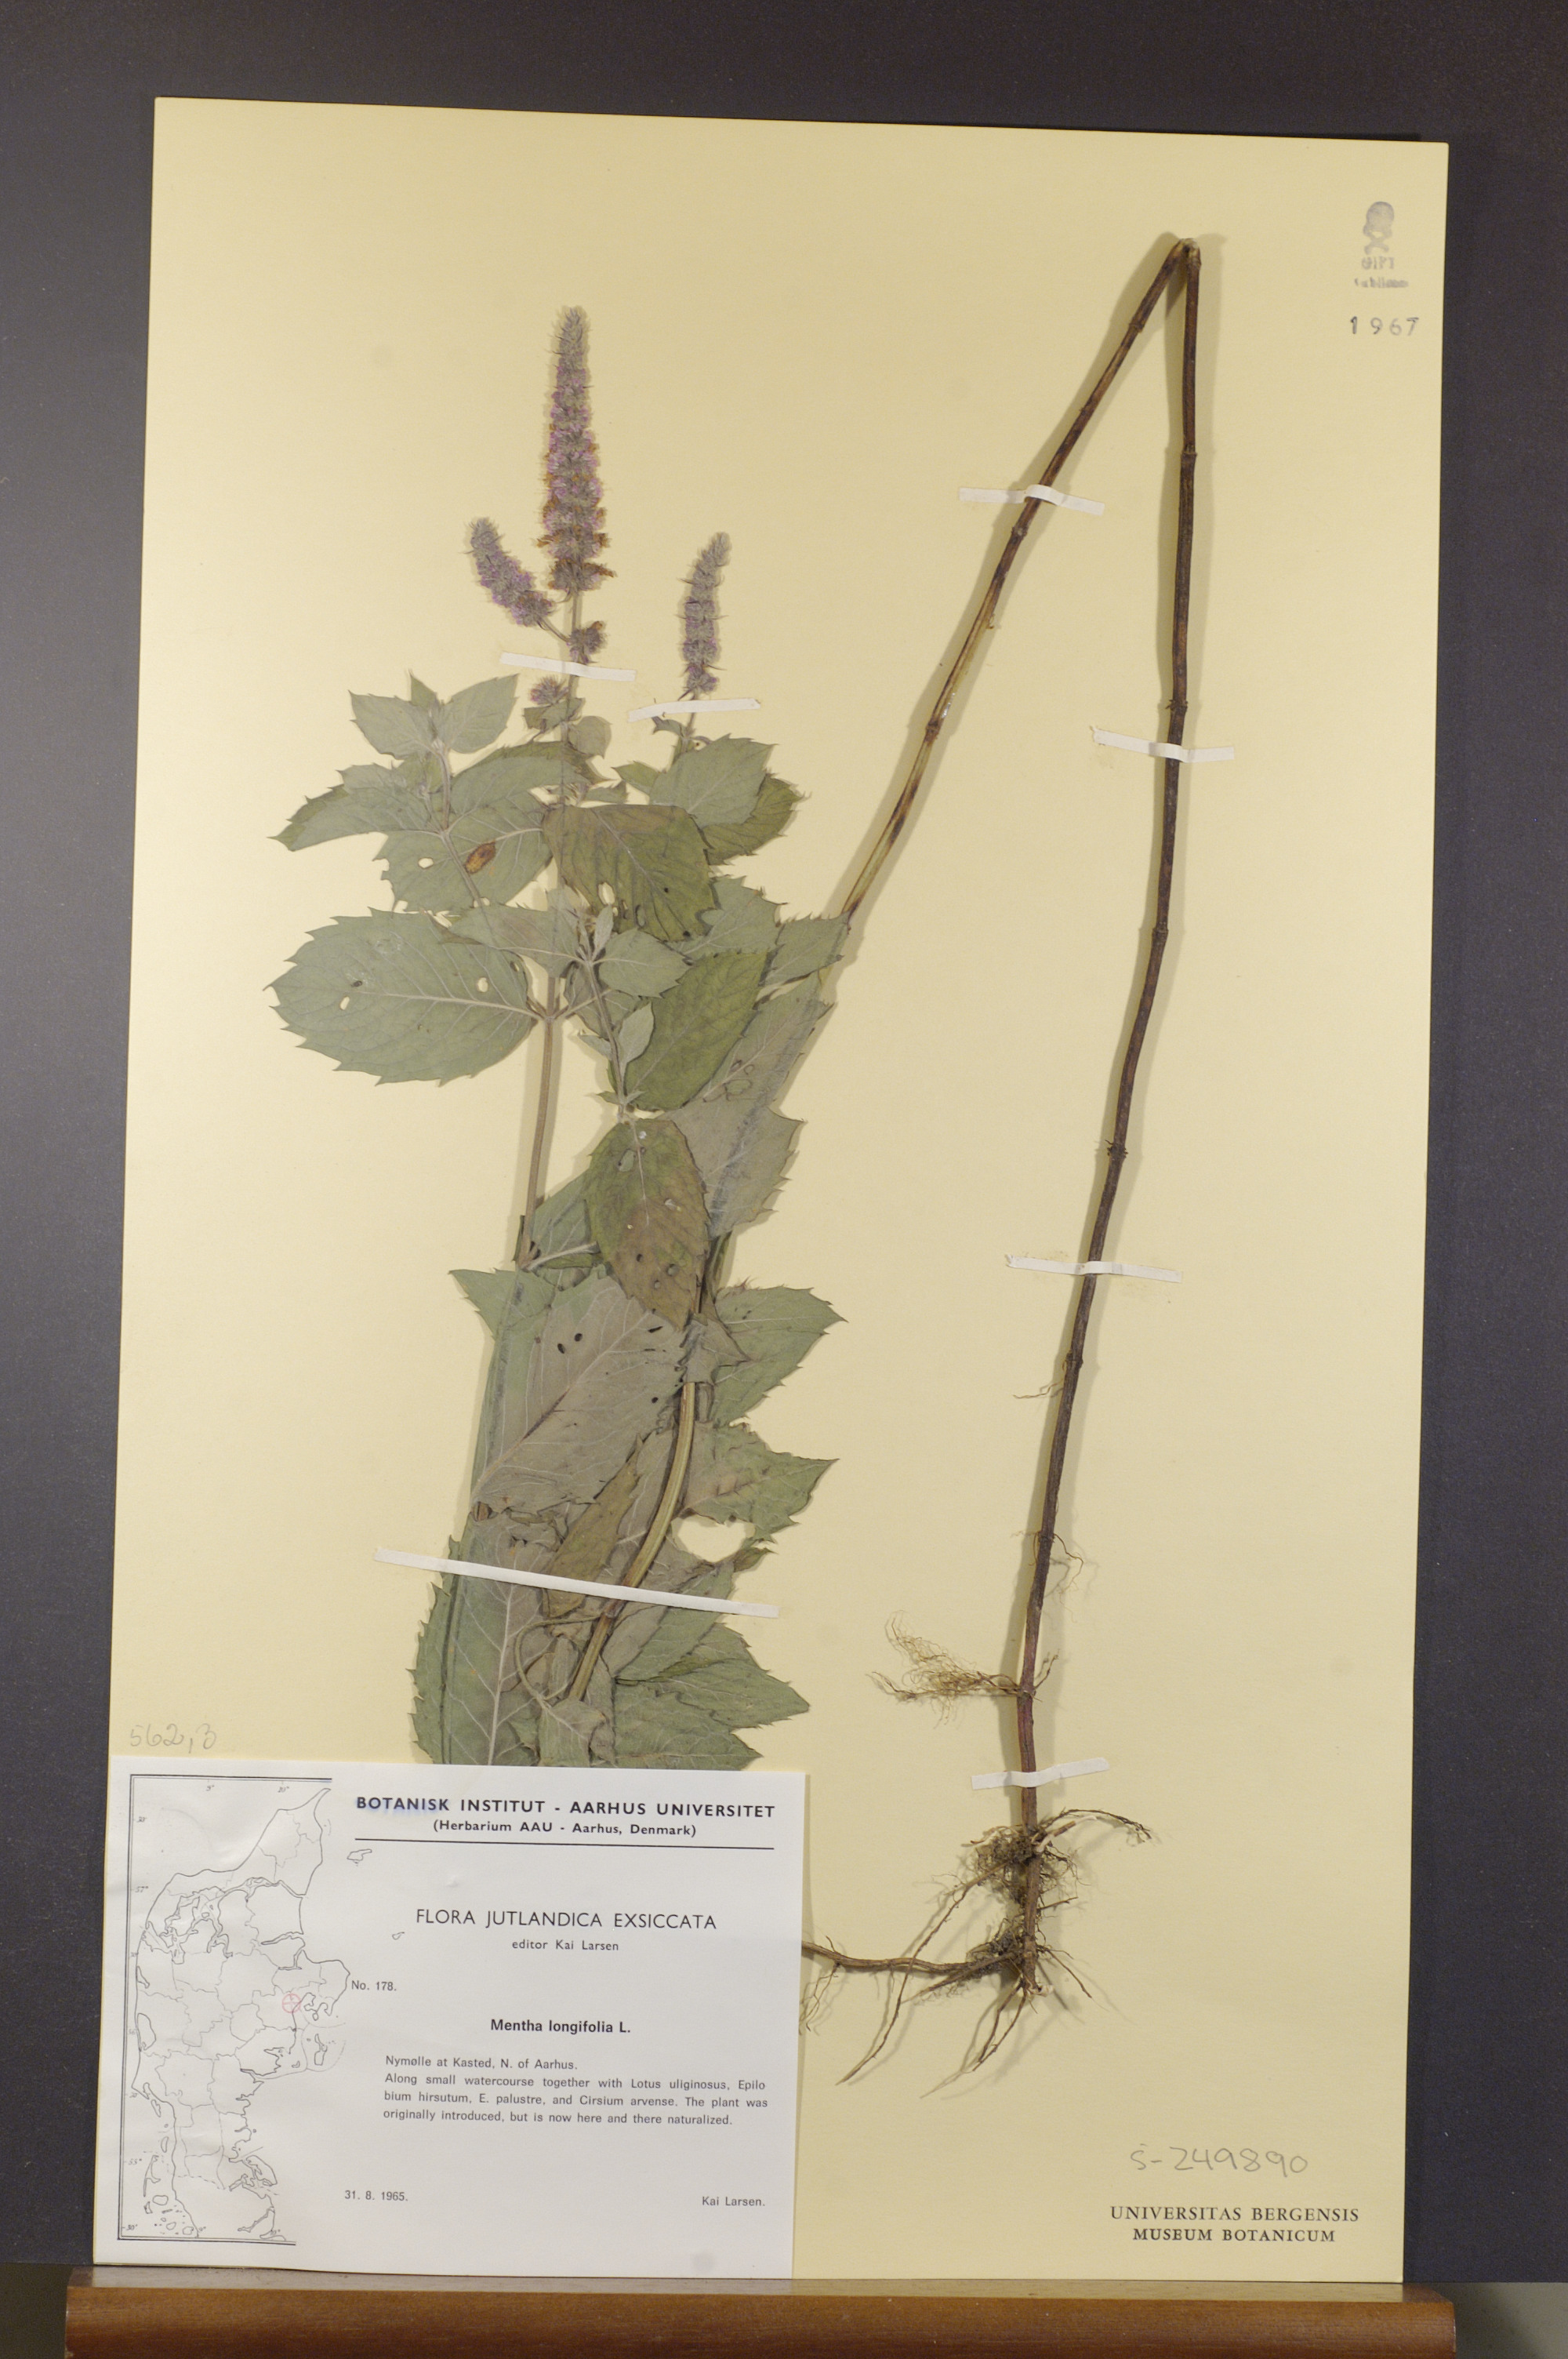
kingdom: Plantae
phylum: Tracheophyta
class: Magnoliopsida
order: Lamiales
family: Lamiaceae
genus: Mentha
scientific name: Mentha longifolia
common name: Horse mint
